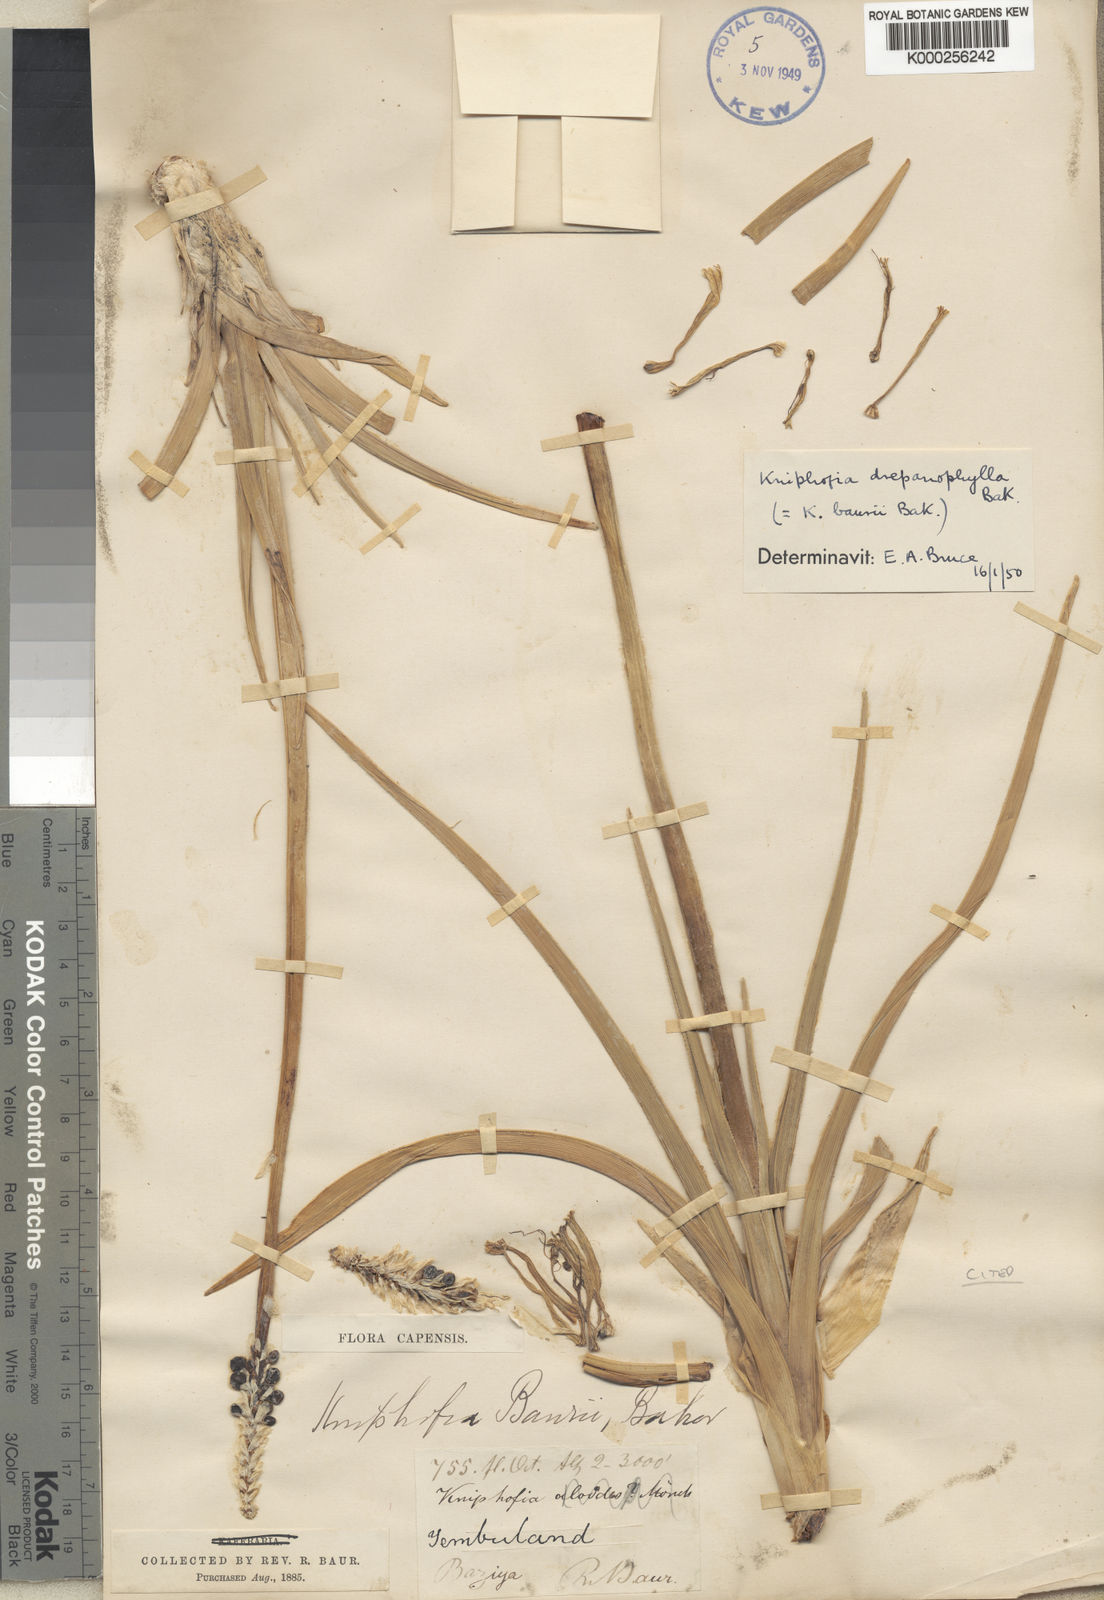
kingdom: Plantae
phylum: Tracheophyta
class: Liliopsida
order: Asparagales
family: Asphodelaceae
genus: Kniphofia
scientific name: Kniphofia baurii
